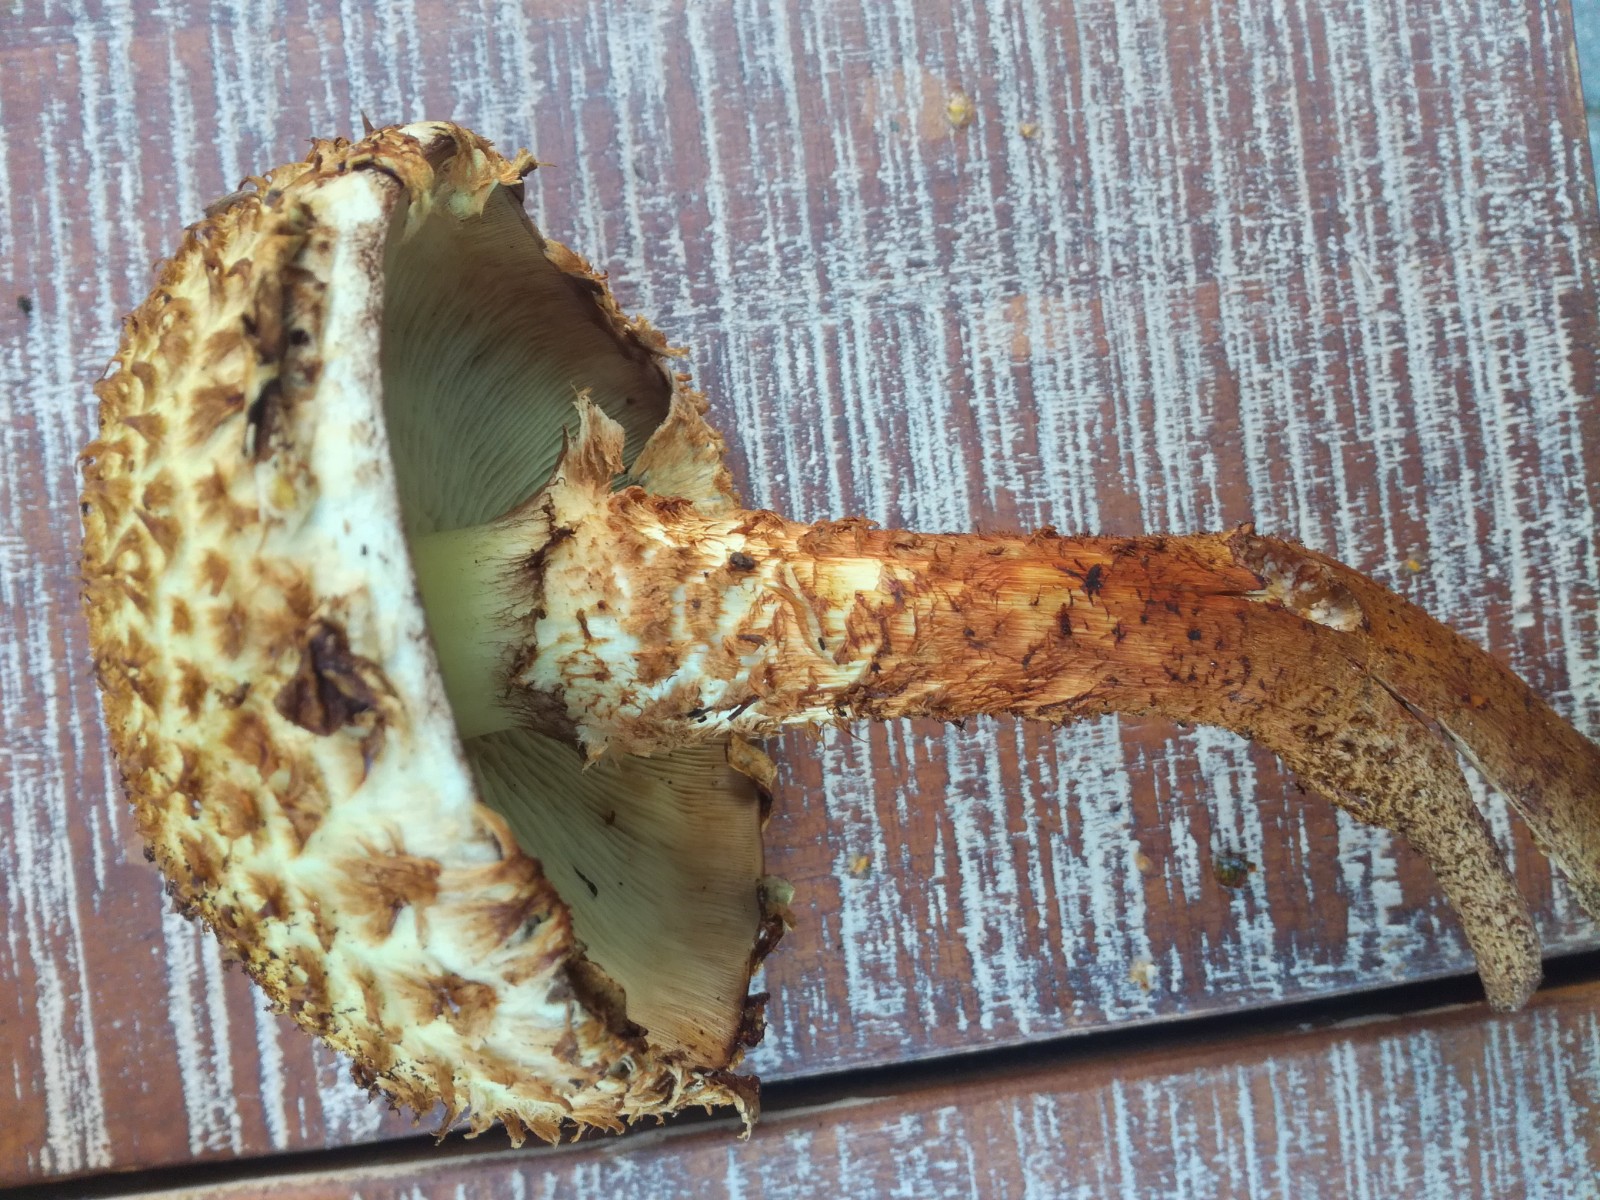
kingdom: Fungi
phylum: Basidiomycota
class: Agaricomycetes
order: Agaricales
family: Strophariaceae
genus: Pholiota
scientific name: Pholiota squarrosa
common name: krumskællet skælhat
